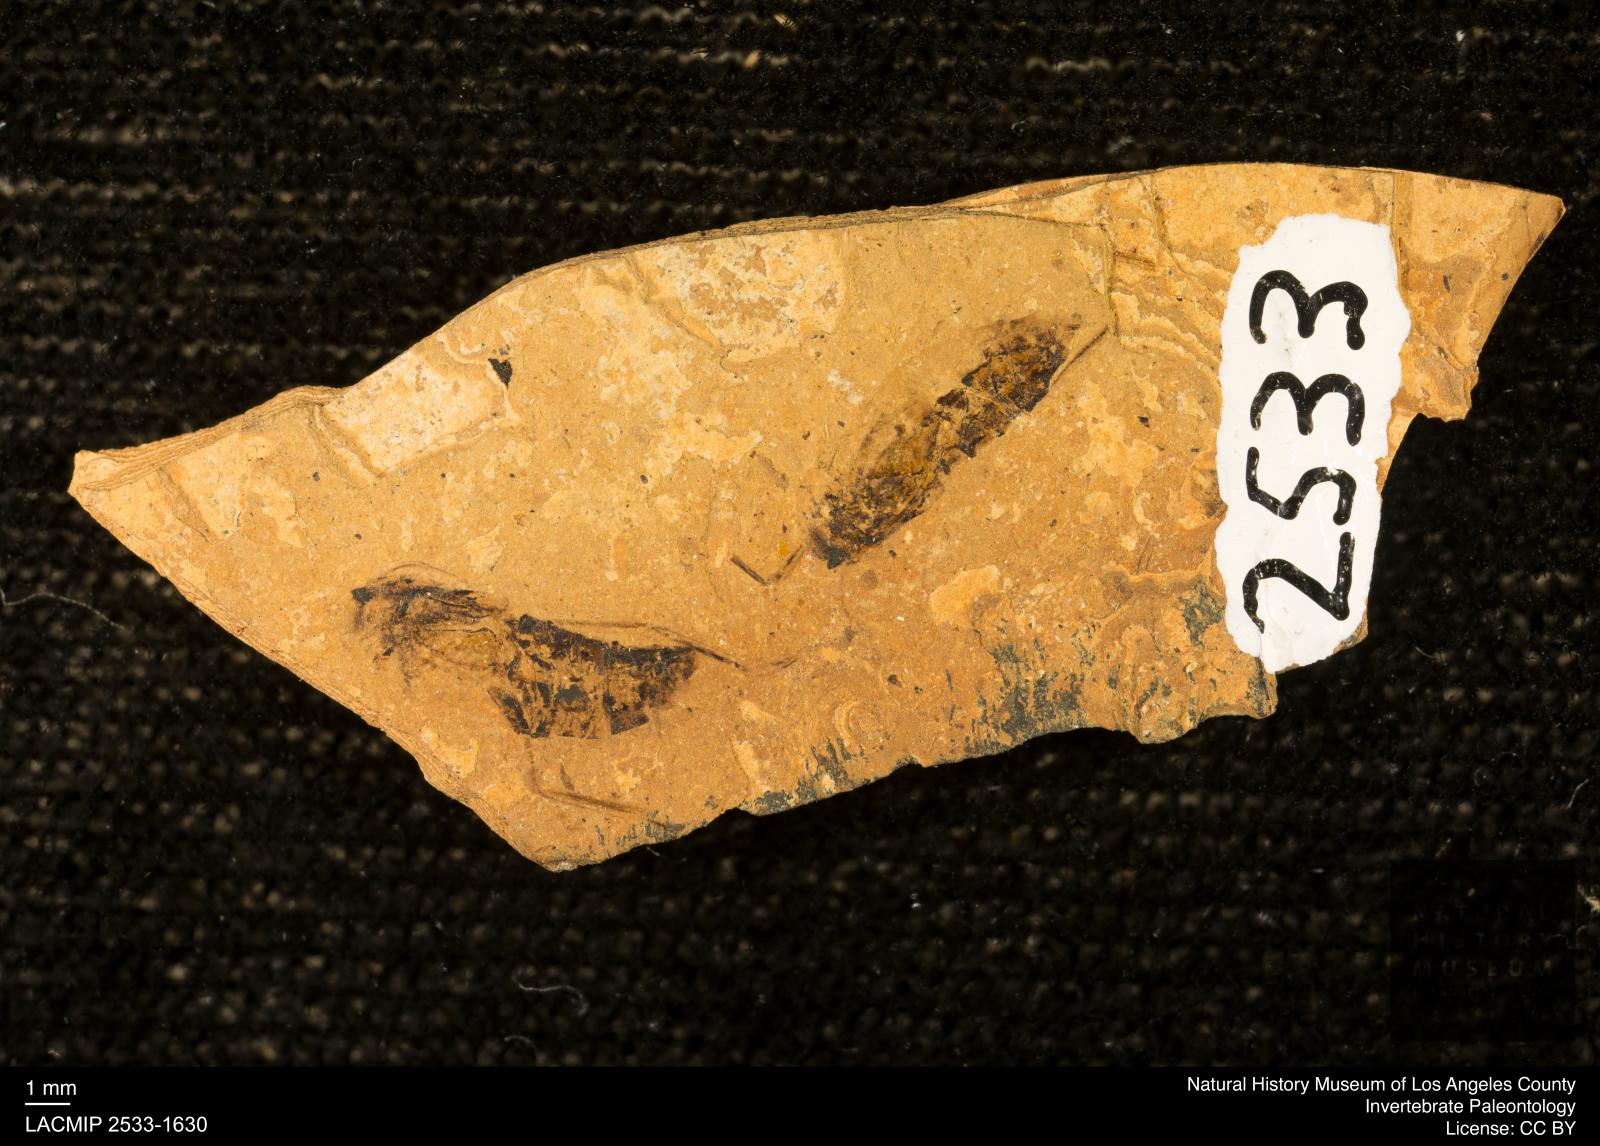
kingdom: Animalia
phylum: Arthropoda
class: Insecta
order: Hemiptera
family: Notonectidae
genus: Notonecta
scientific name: Notonecta
